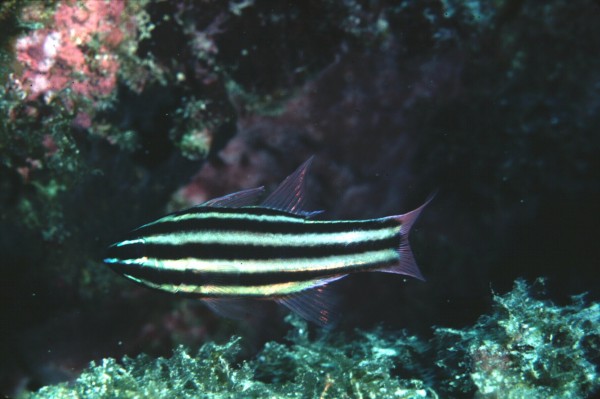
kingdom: Animalia
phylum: Chordata
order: Perciformes
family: Apogonidae
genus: Ostorhinchus
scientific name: Ostorhinchus angustatus
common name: Narrow-striped cardinalfish
